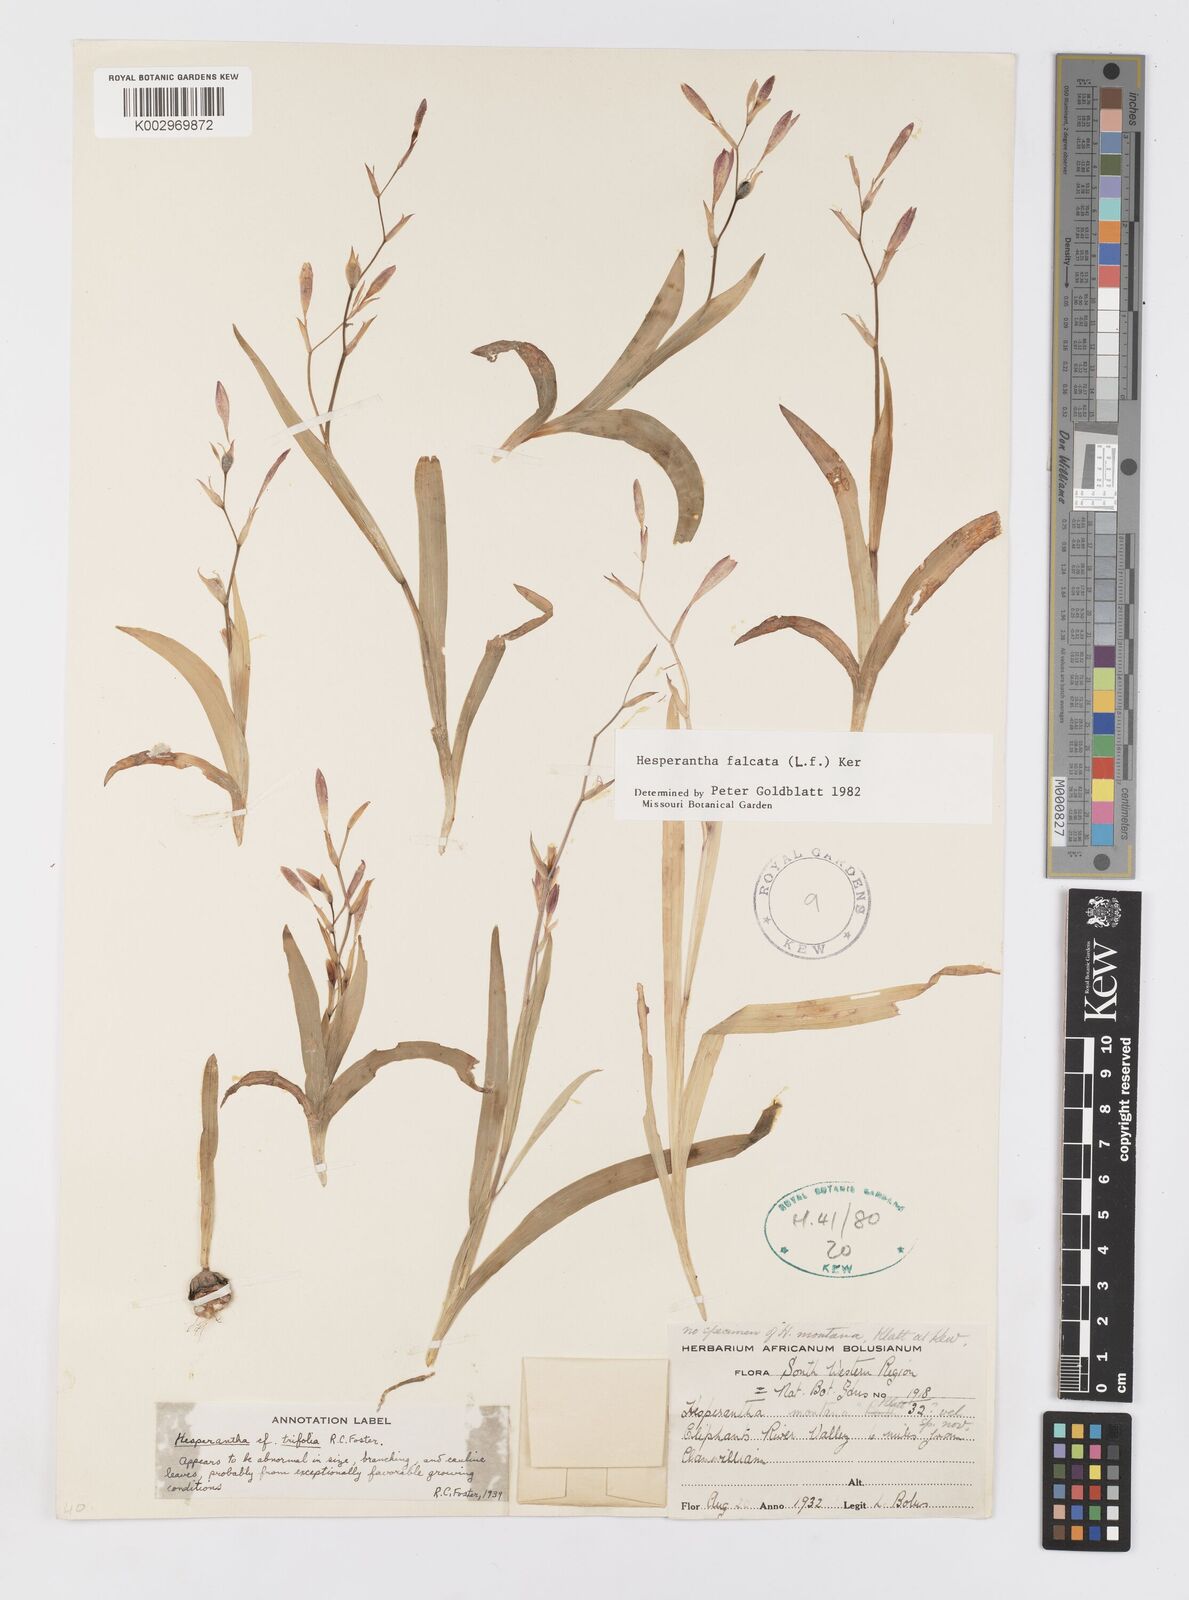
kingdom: Plantae
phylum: Tracheophyta
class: Liliopsida
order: Asparagales
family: Iridaceae
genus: Hesperantha
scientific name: Hesperantha falcata
